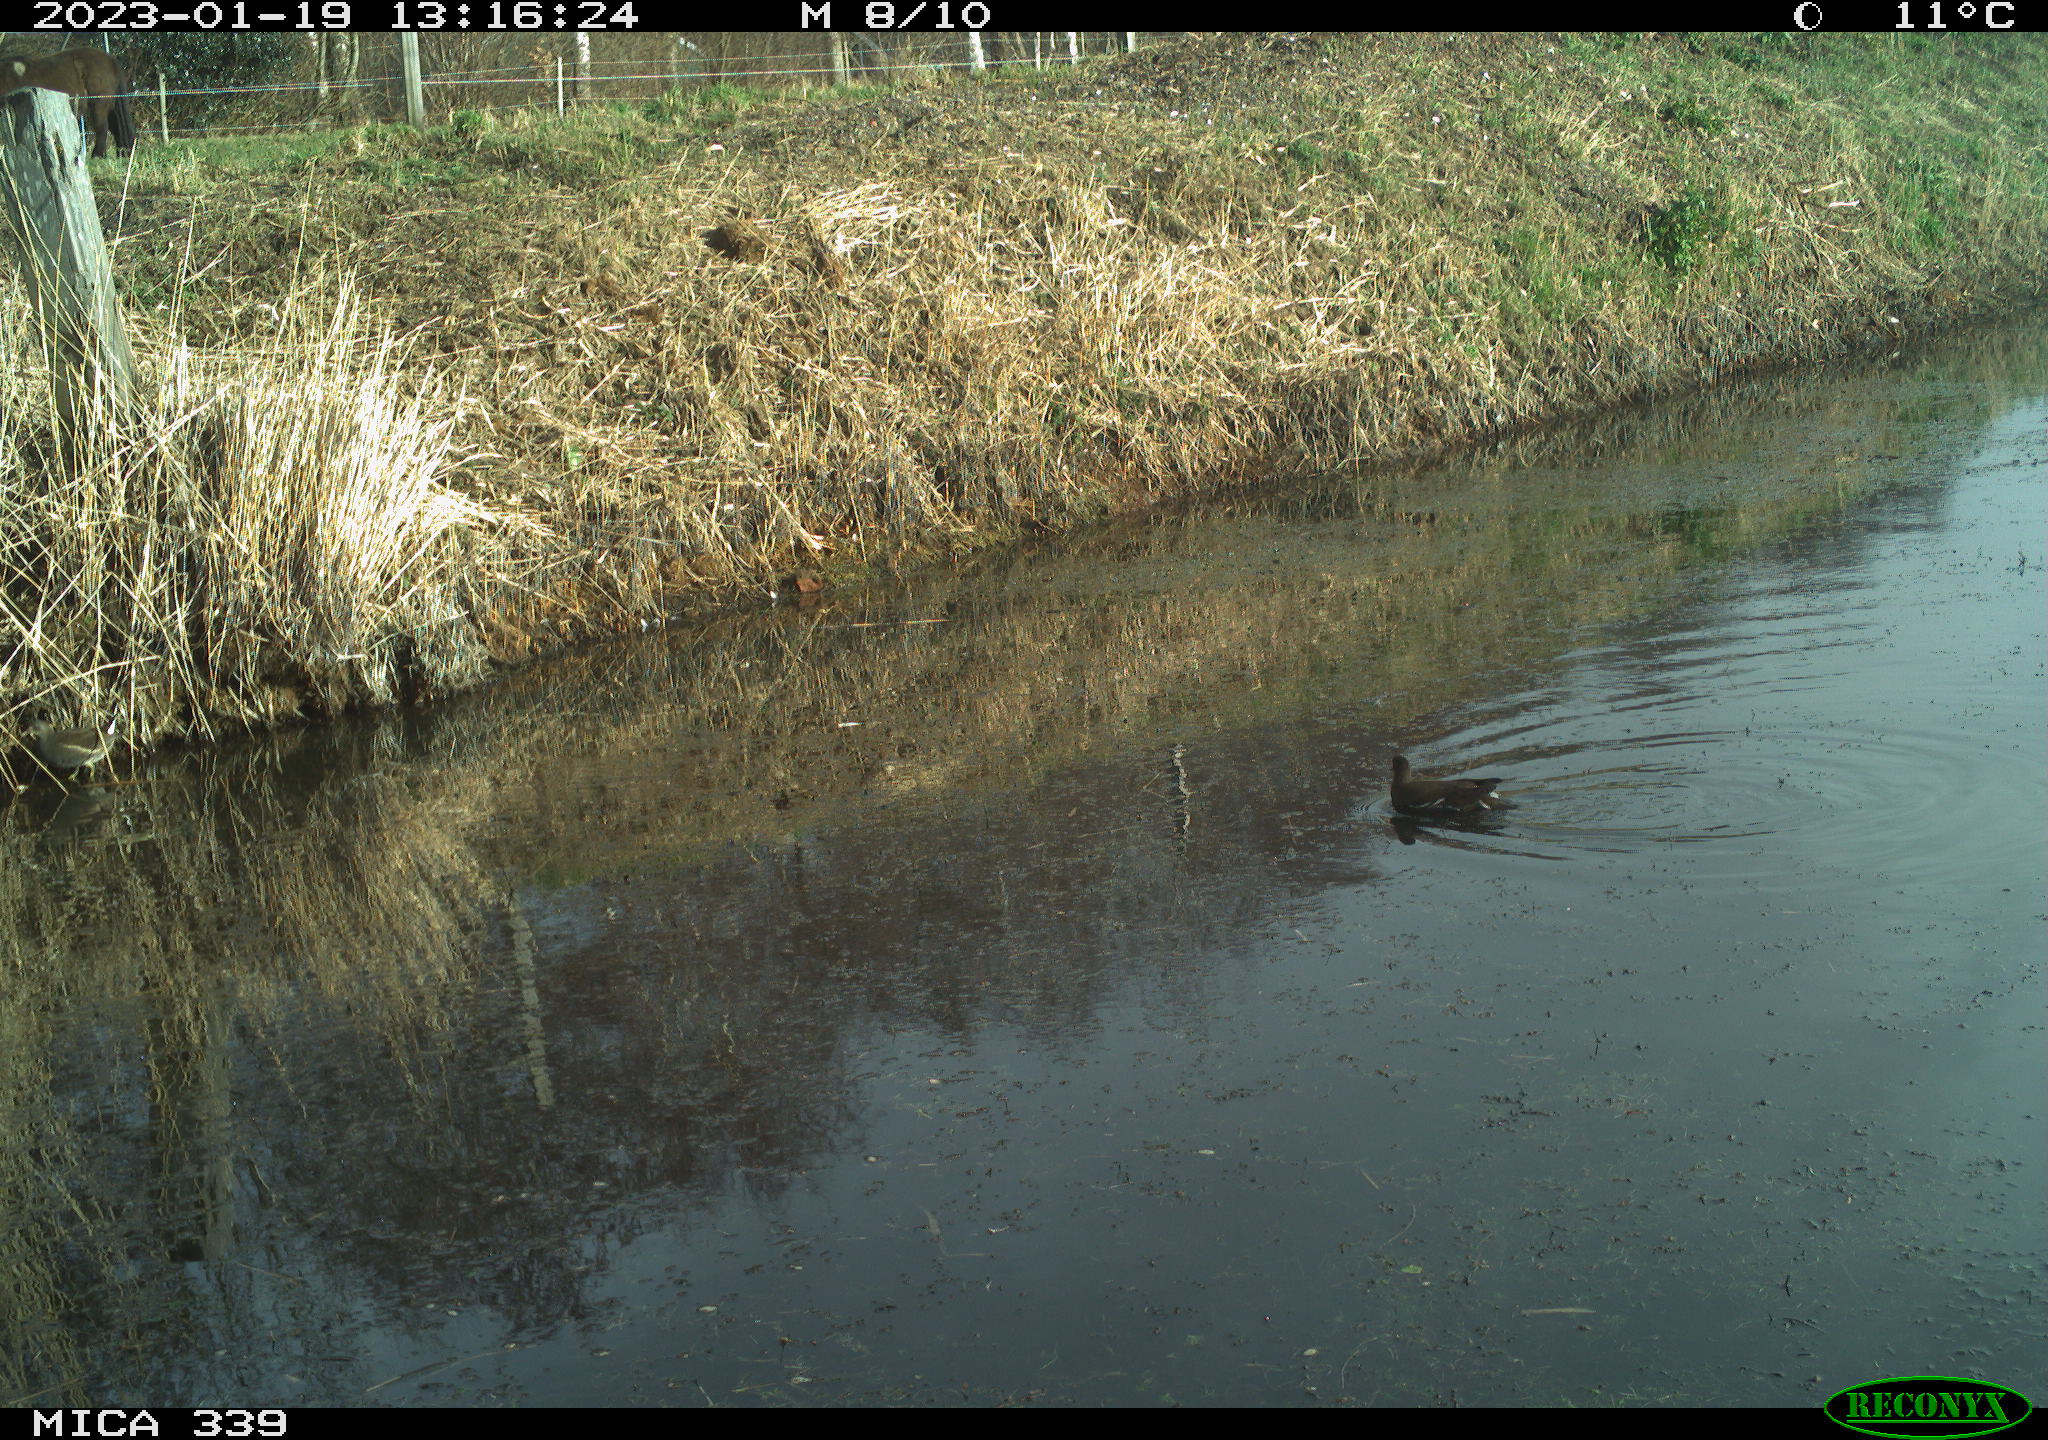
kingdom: Animalia
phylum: Chordata
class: Aves
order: Gruiformes
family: Rallidae
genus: Gallinula
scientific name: Gallinula chloropus
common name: Common moorhen
